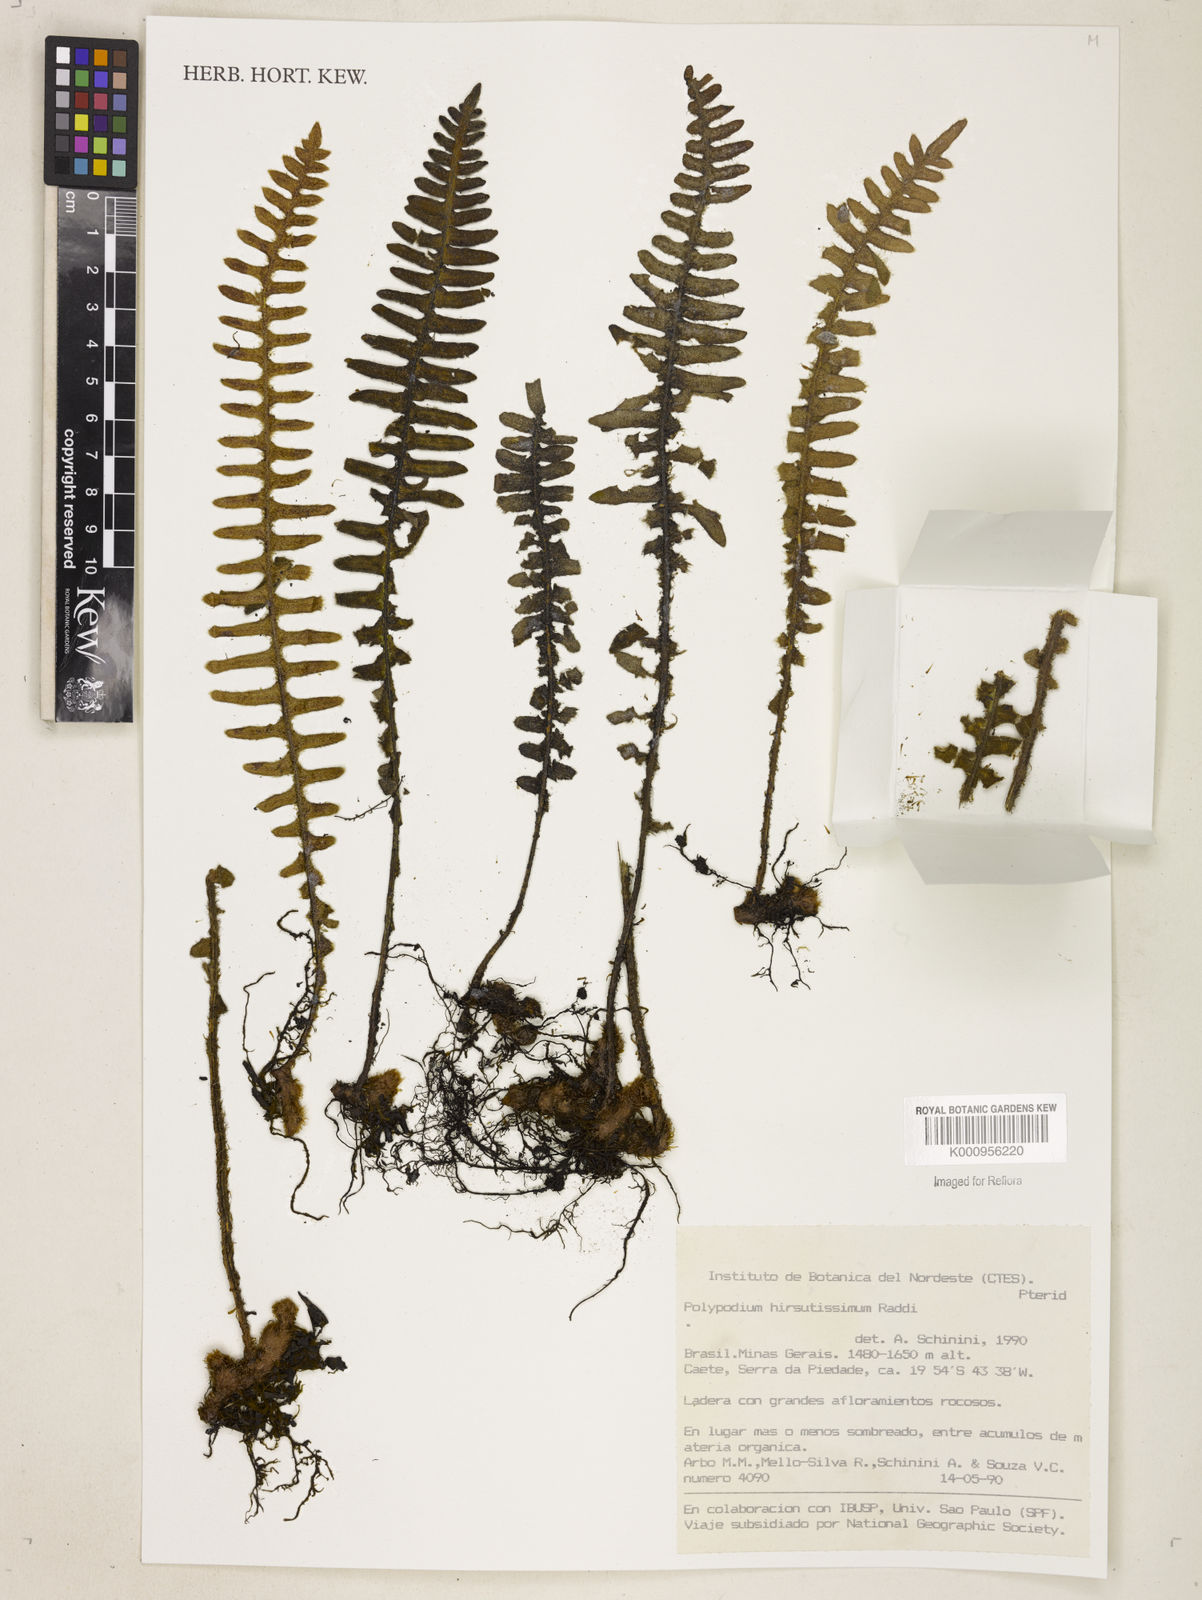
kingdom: Plantae
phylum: Tracheophyta
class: Polypodiopsida
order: Polypodiales
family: Polypodiaceae
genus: Pleopeltis
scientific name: Pleopeltis hirsutissima
